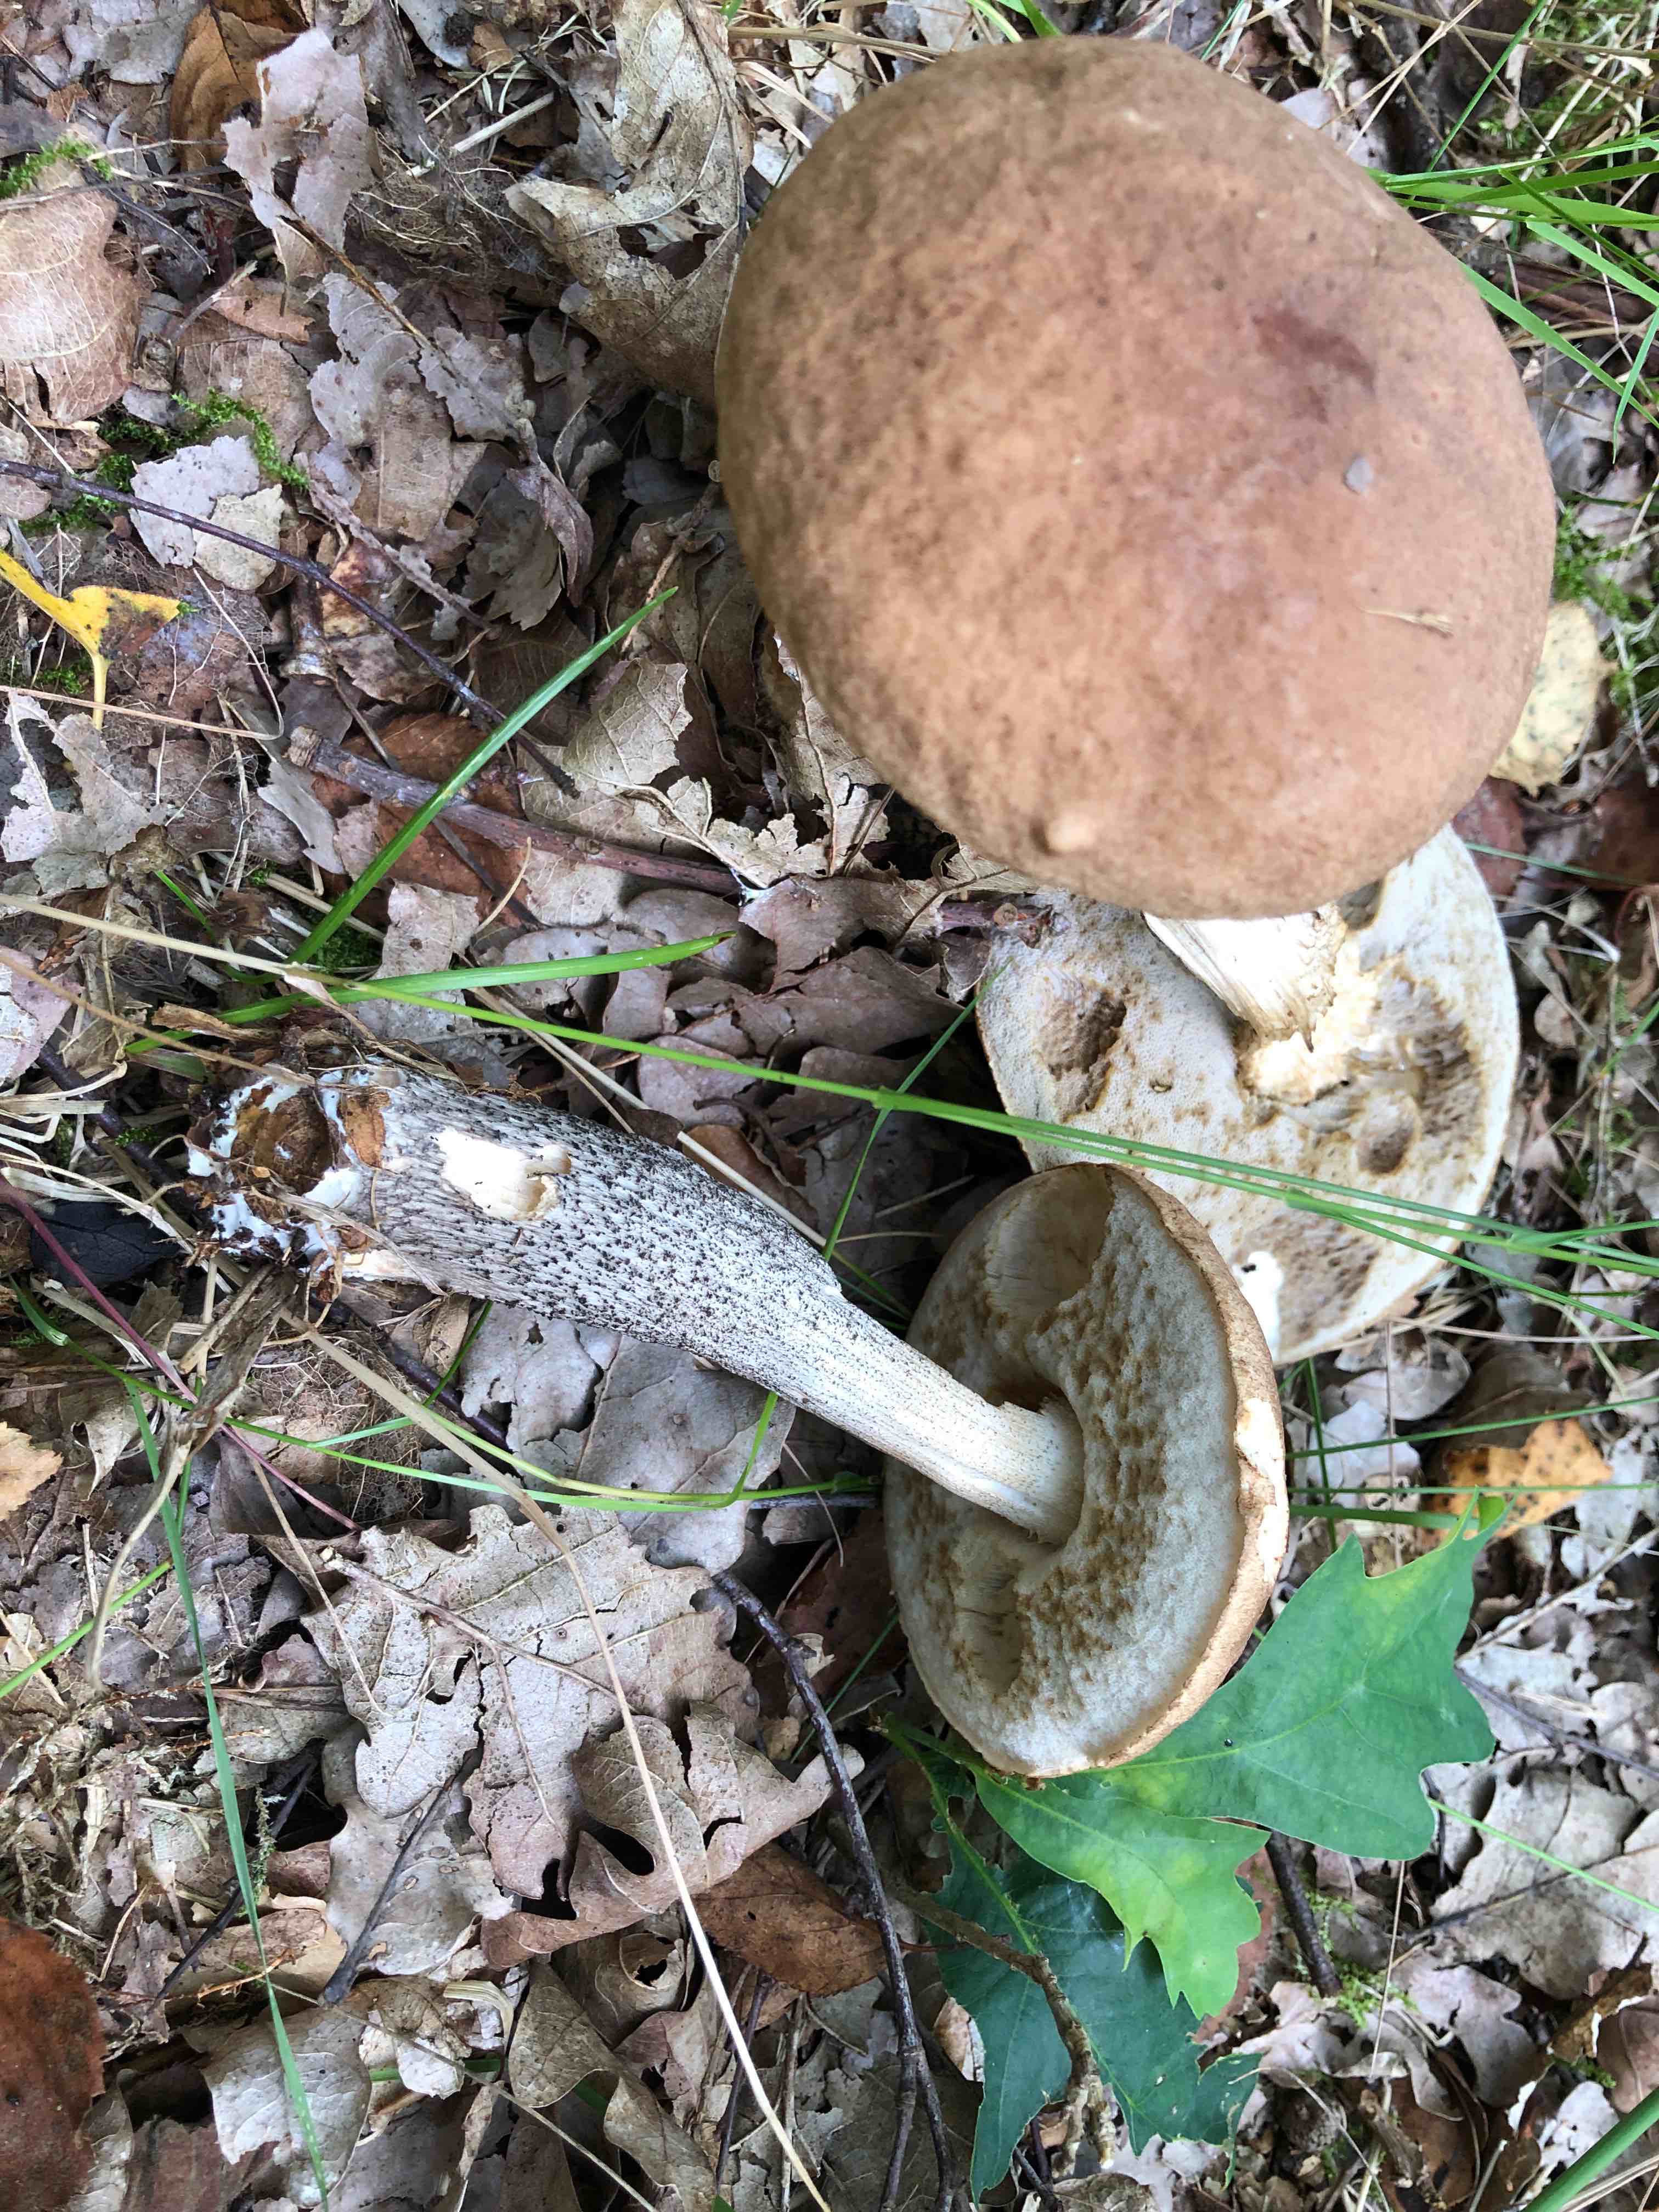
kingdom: Fungi
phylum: Basidiomycota
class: Agaricomycetes
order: Boletales
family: Boletaceae
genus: Leccinum
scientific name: Leccinum scabrum
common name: brun skælrørhat
